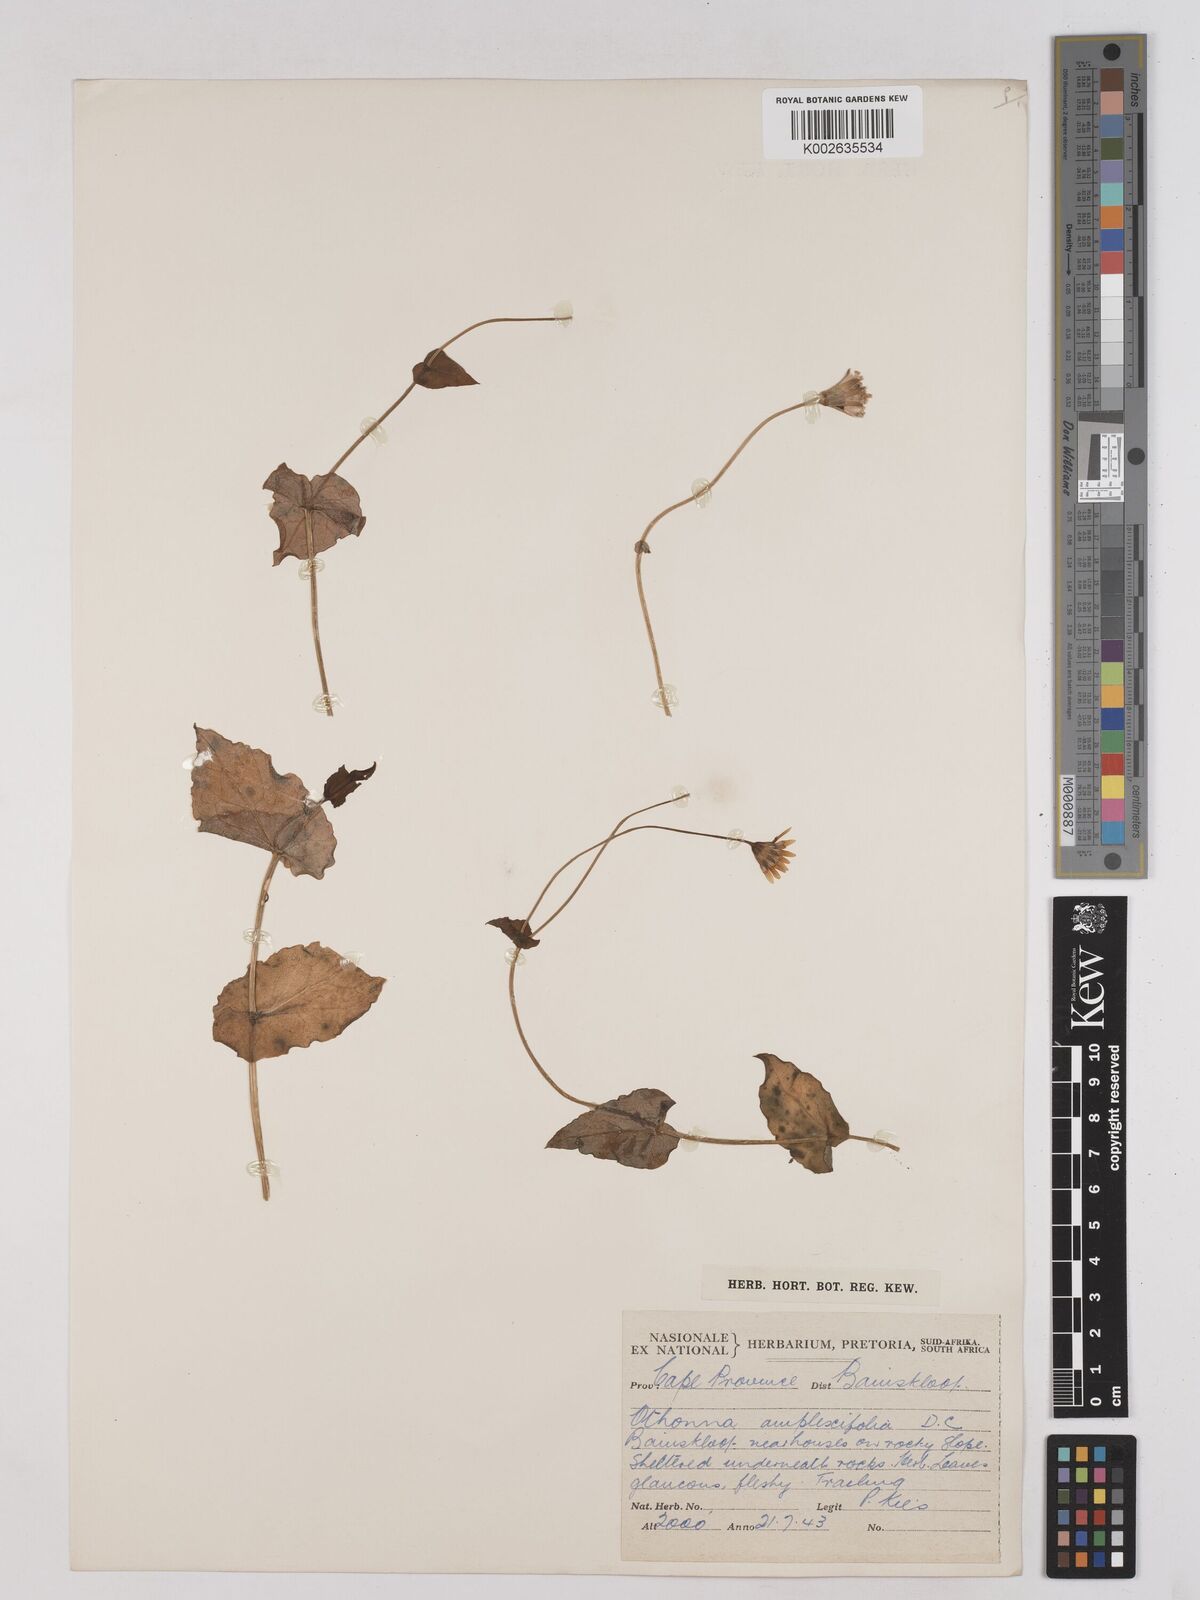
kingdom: Plantae
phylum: Tracheophyta
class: Magnoliopsida
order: Asterales
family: Asteraceae
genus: Othonna
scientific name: Othonna amplexifolia
